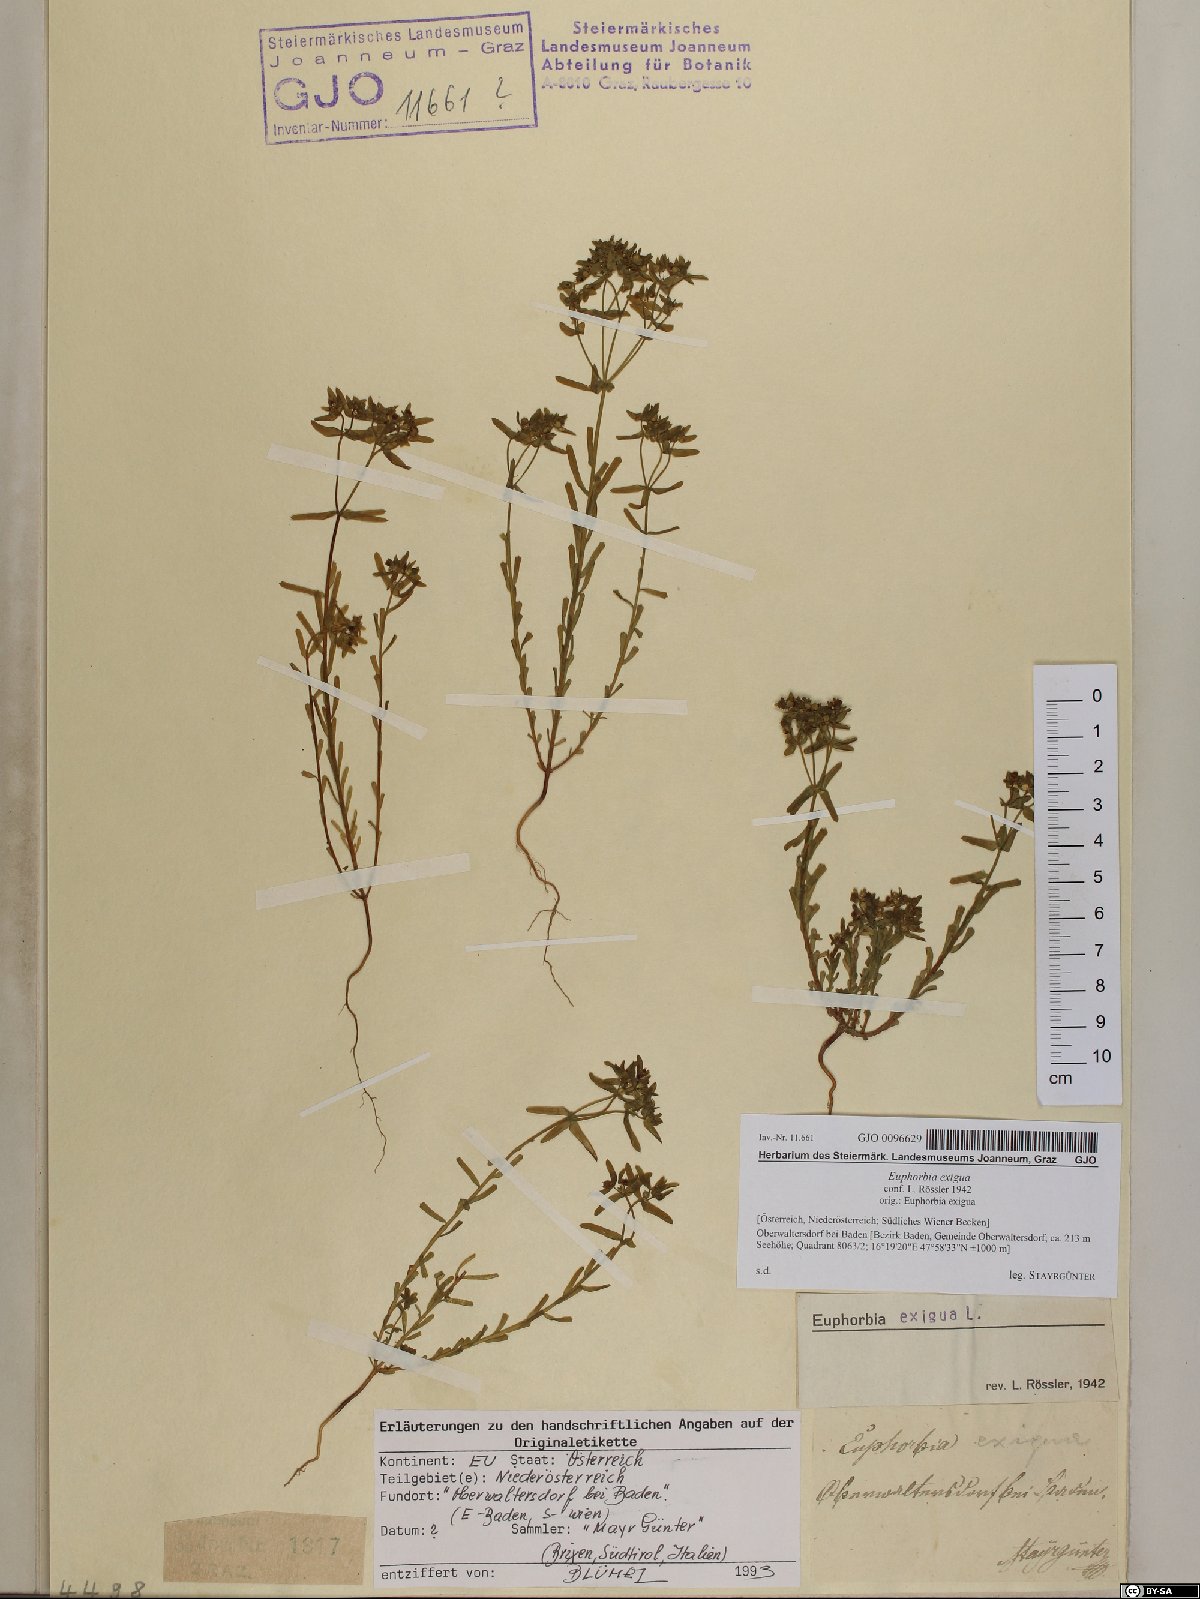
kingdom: Plantae
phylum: Tracheophyta
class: Magnoliopsida
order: Malpighiales
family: Euphorbiaceae
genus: Euphorbia
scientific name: Euphorbia exigua
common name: Dwarf spurge
